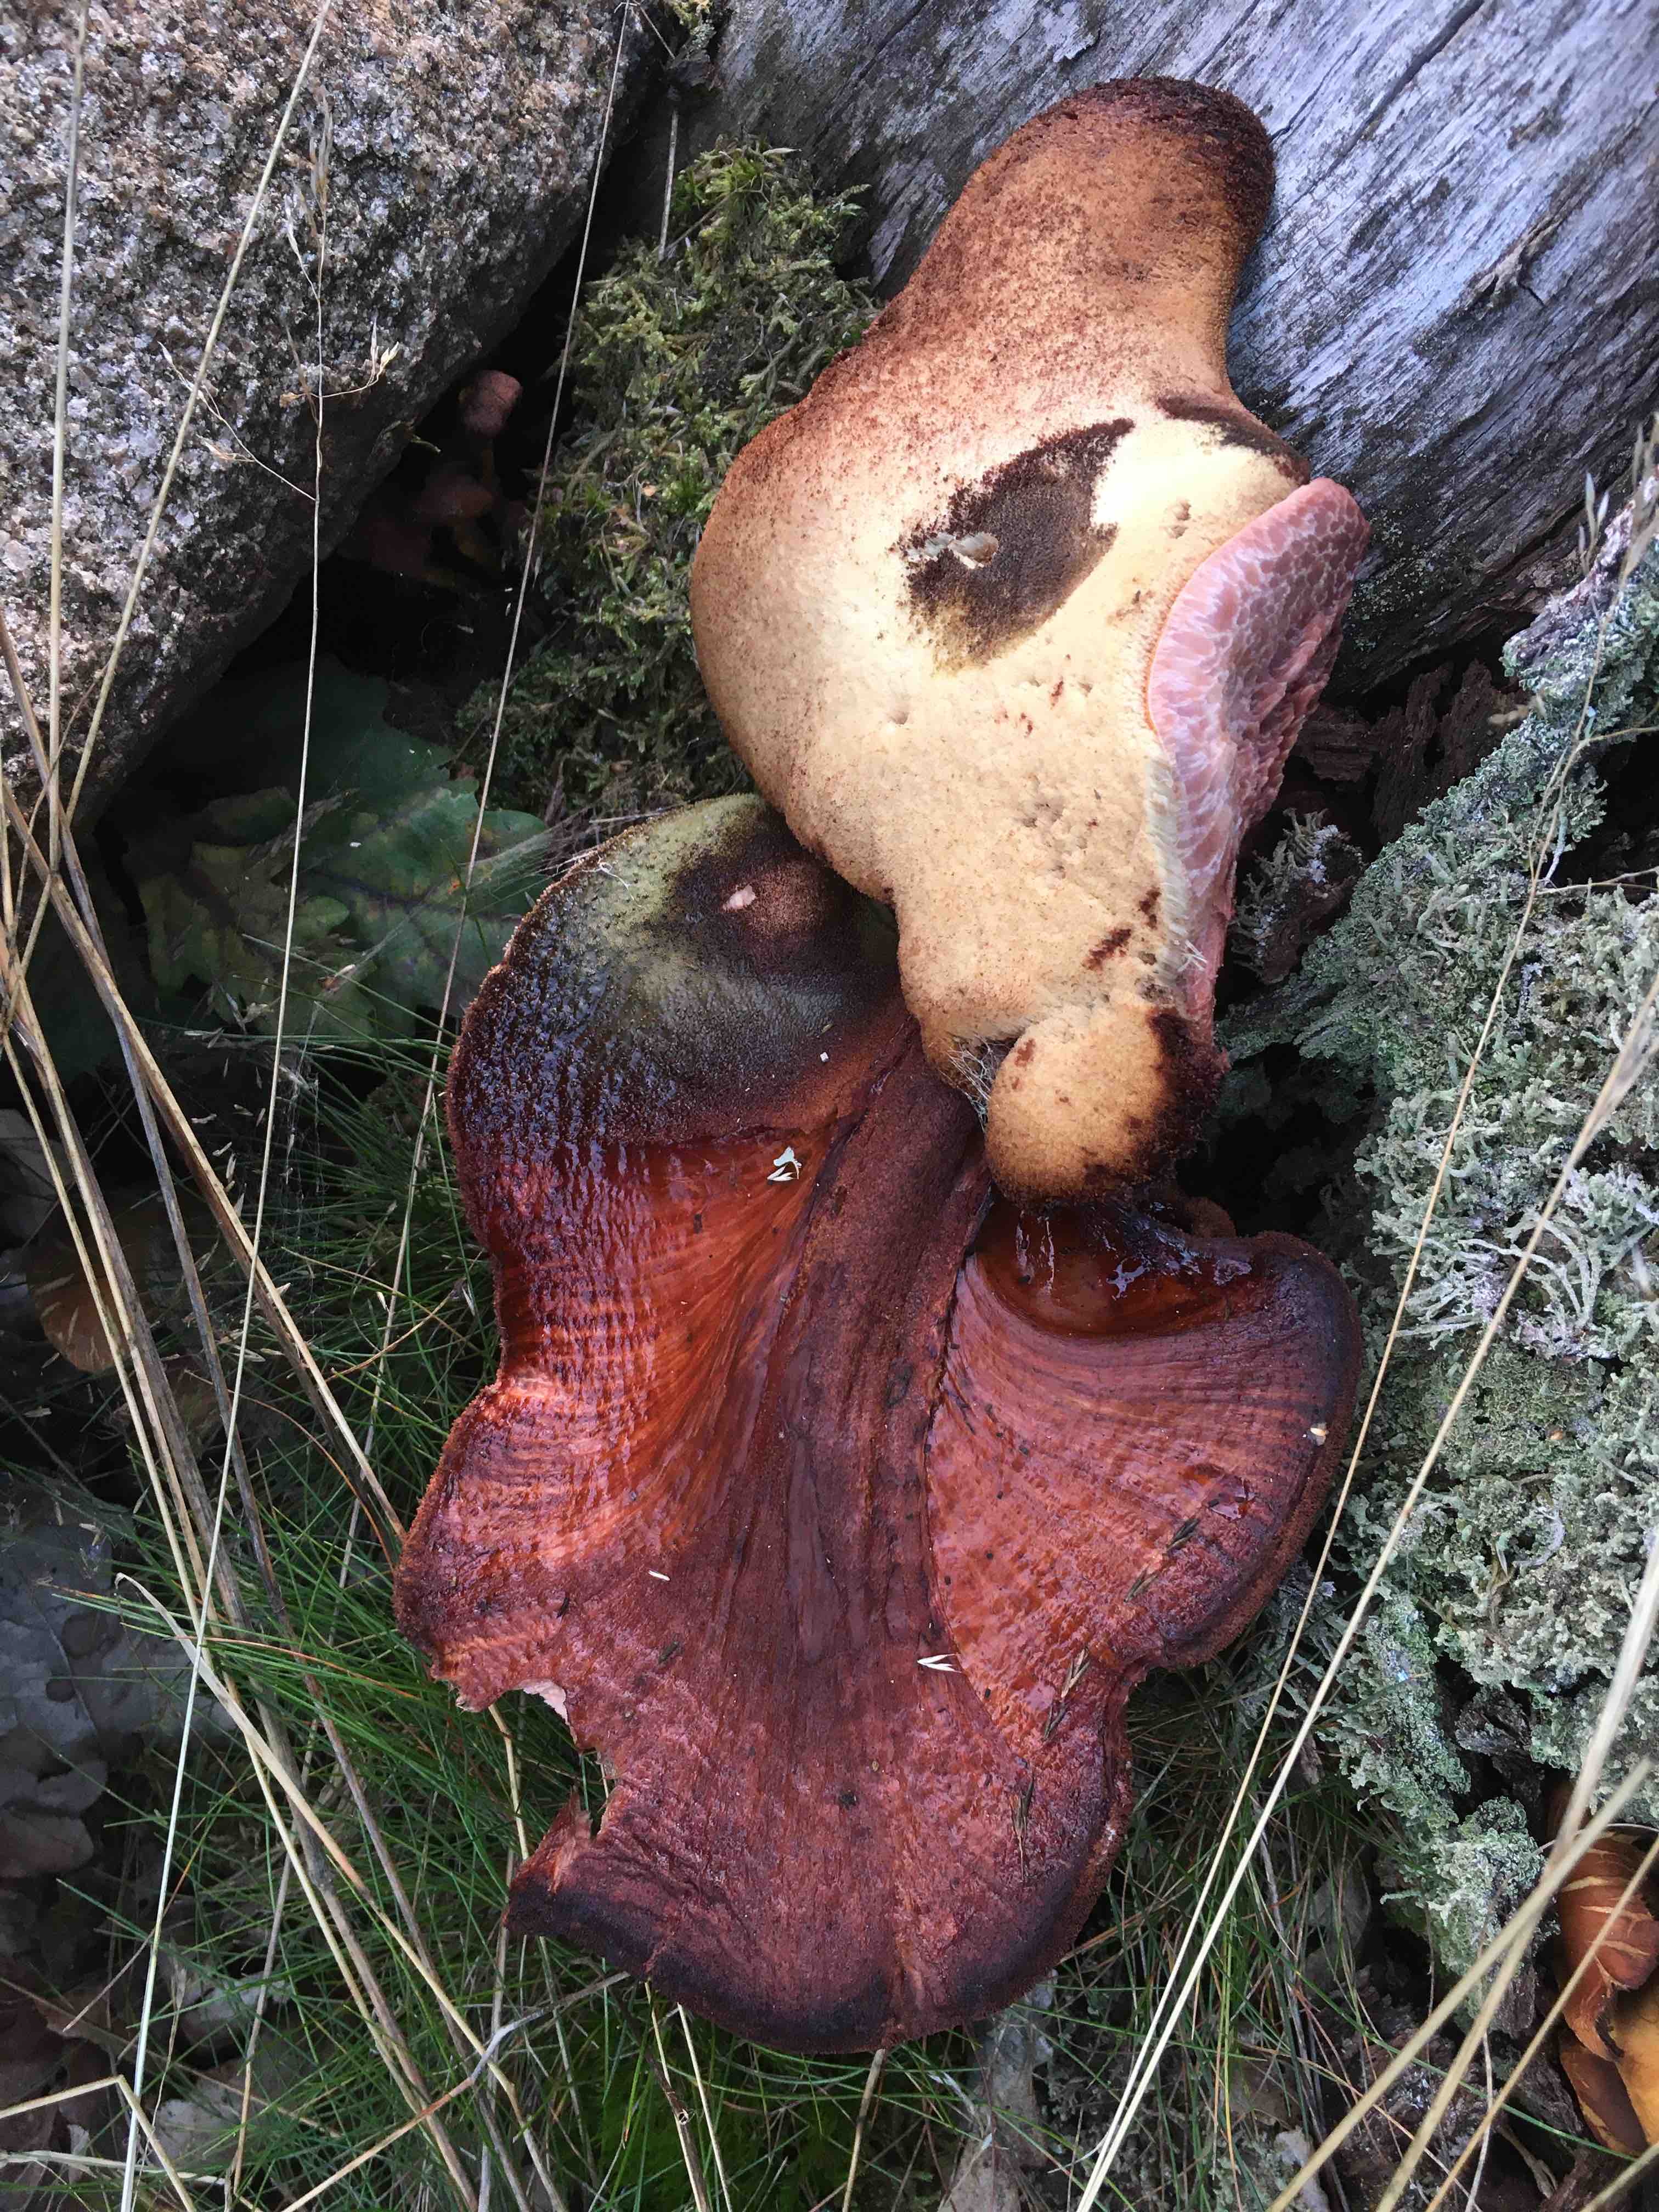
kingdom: Fungi
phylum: Basidiomycota
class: Agaricomycetes
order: Agaricales
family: Fistulinaceae
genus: Fistulina
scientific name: Fistulina hepatica
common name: oksetunge
